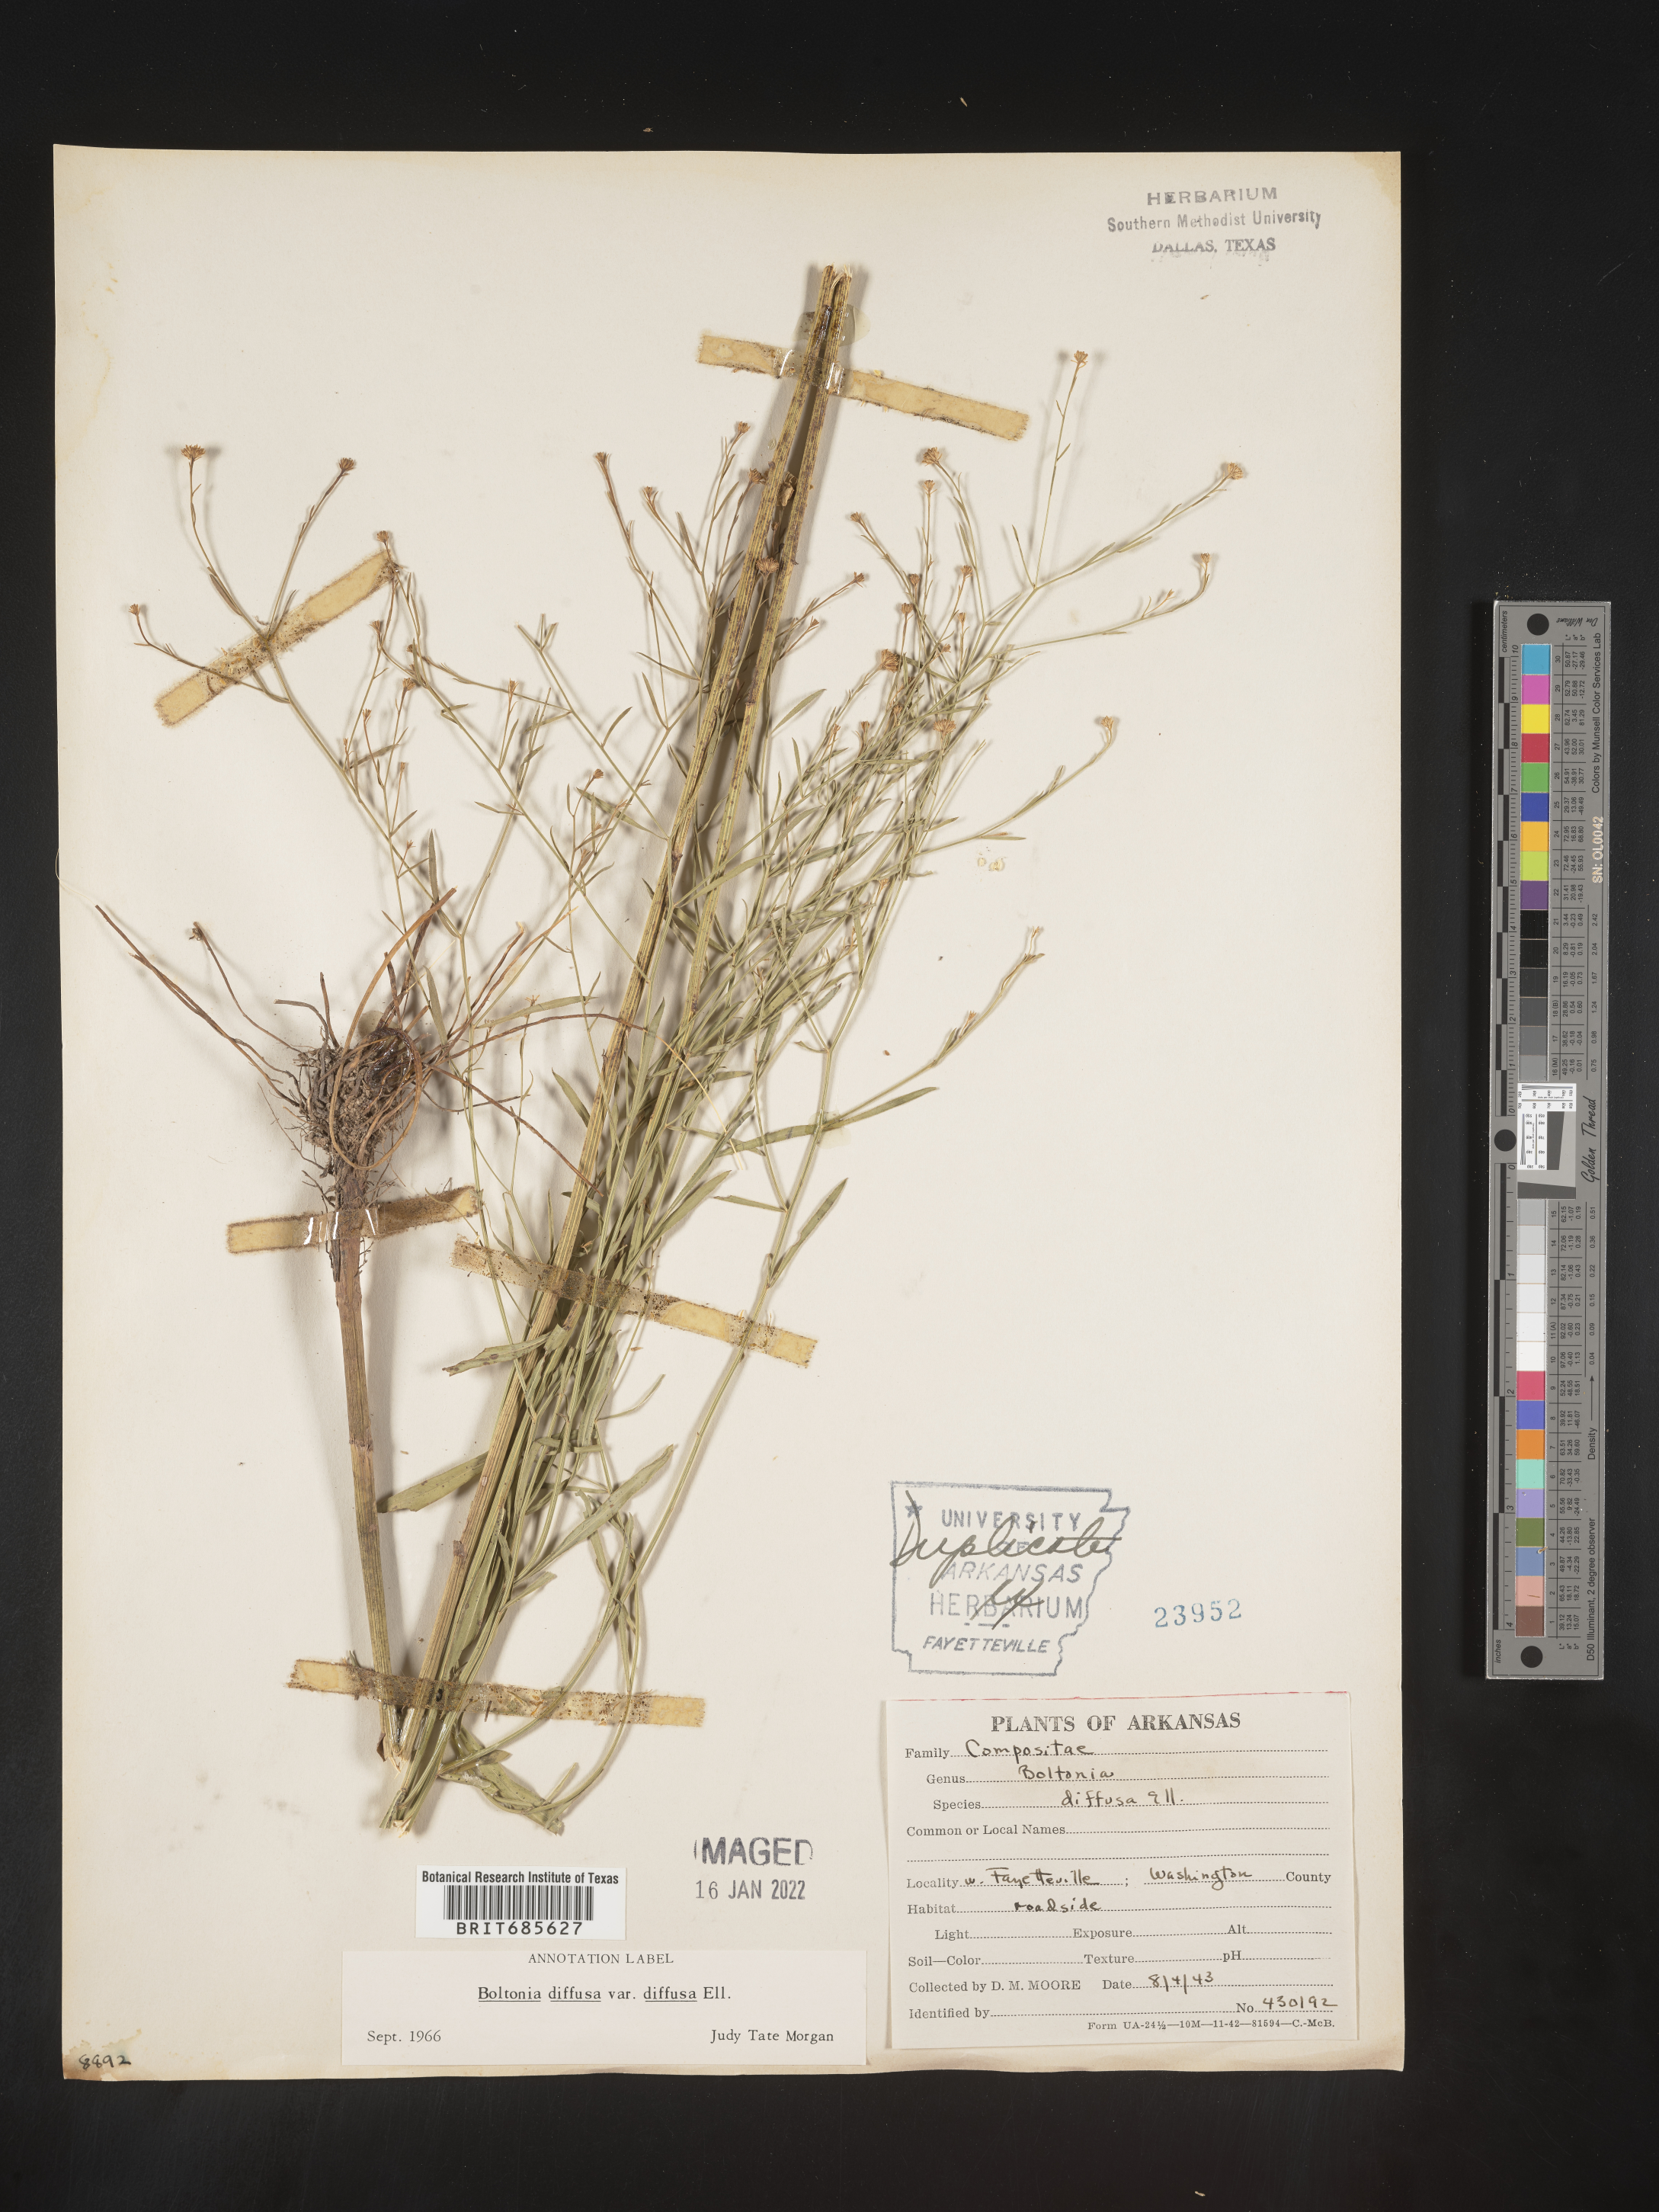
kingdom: Plantae
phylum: Tracheophyta
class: Magnoliopsida
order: Asterales
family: Asteraceae
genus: Boltonia
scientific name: Boltonia diffusa
